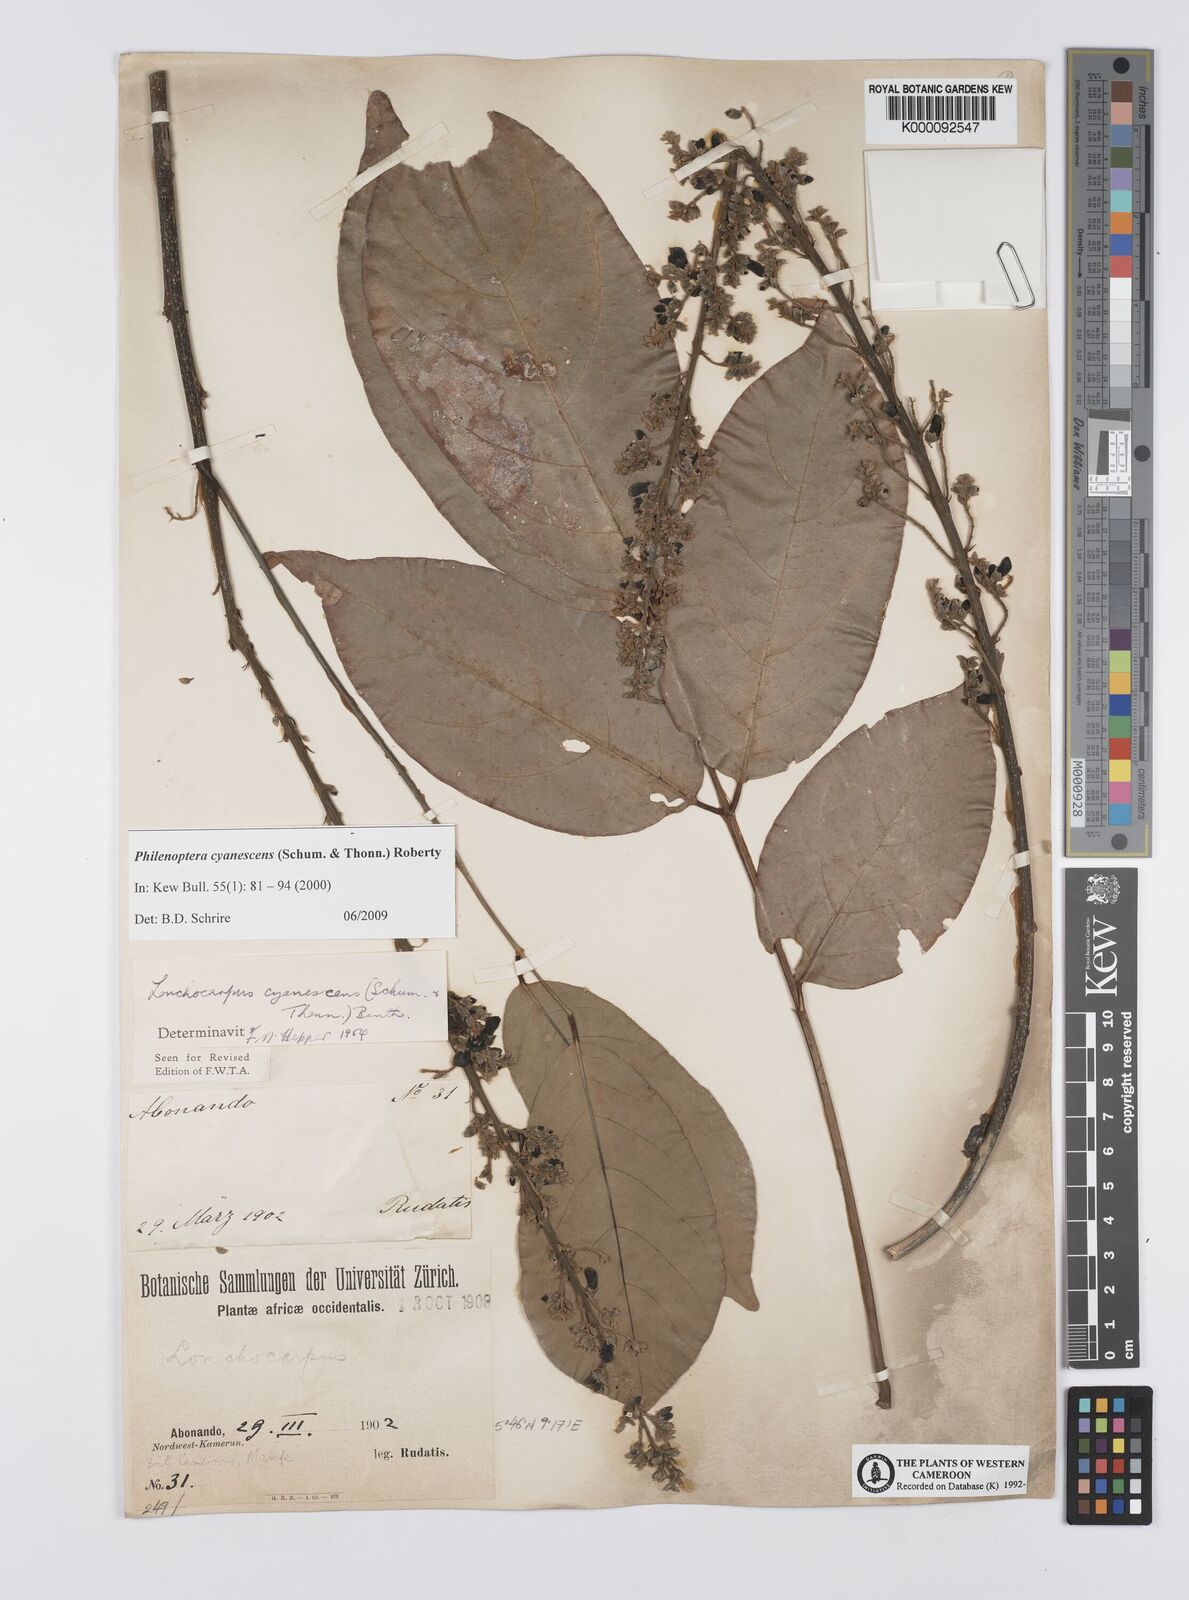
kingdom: Plantae
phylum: Tracheophyta
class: Magnoliopsida
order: Fabales
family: Fabaceae
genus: Philenoptera
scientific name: Philenoptera cyanescens
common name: West african-indigo
